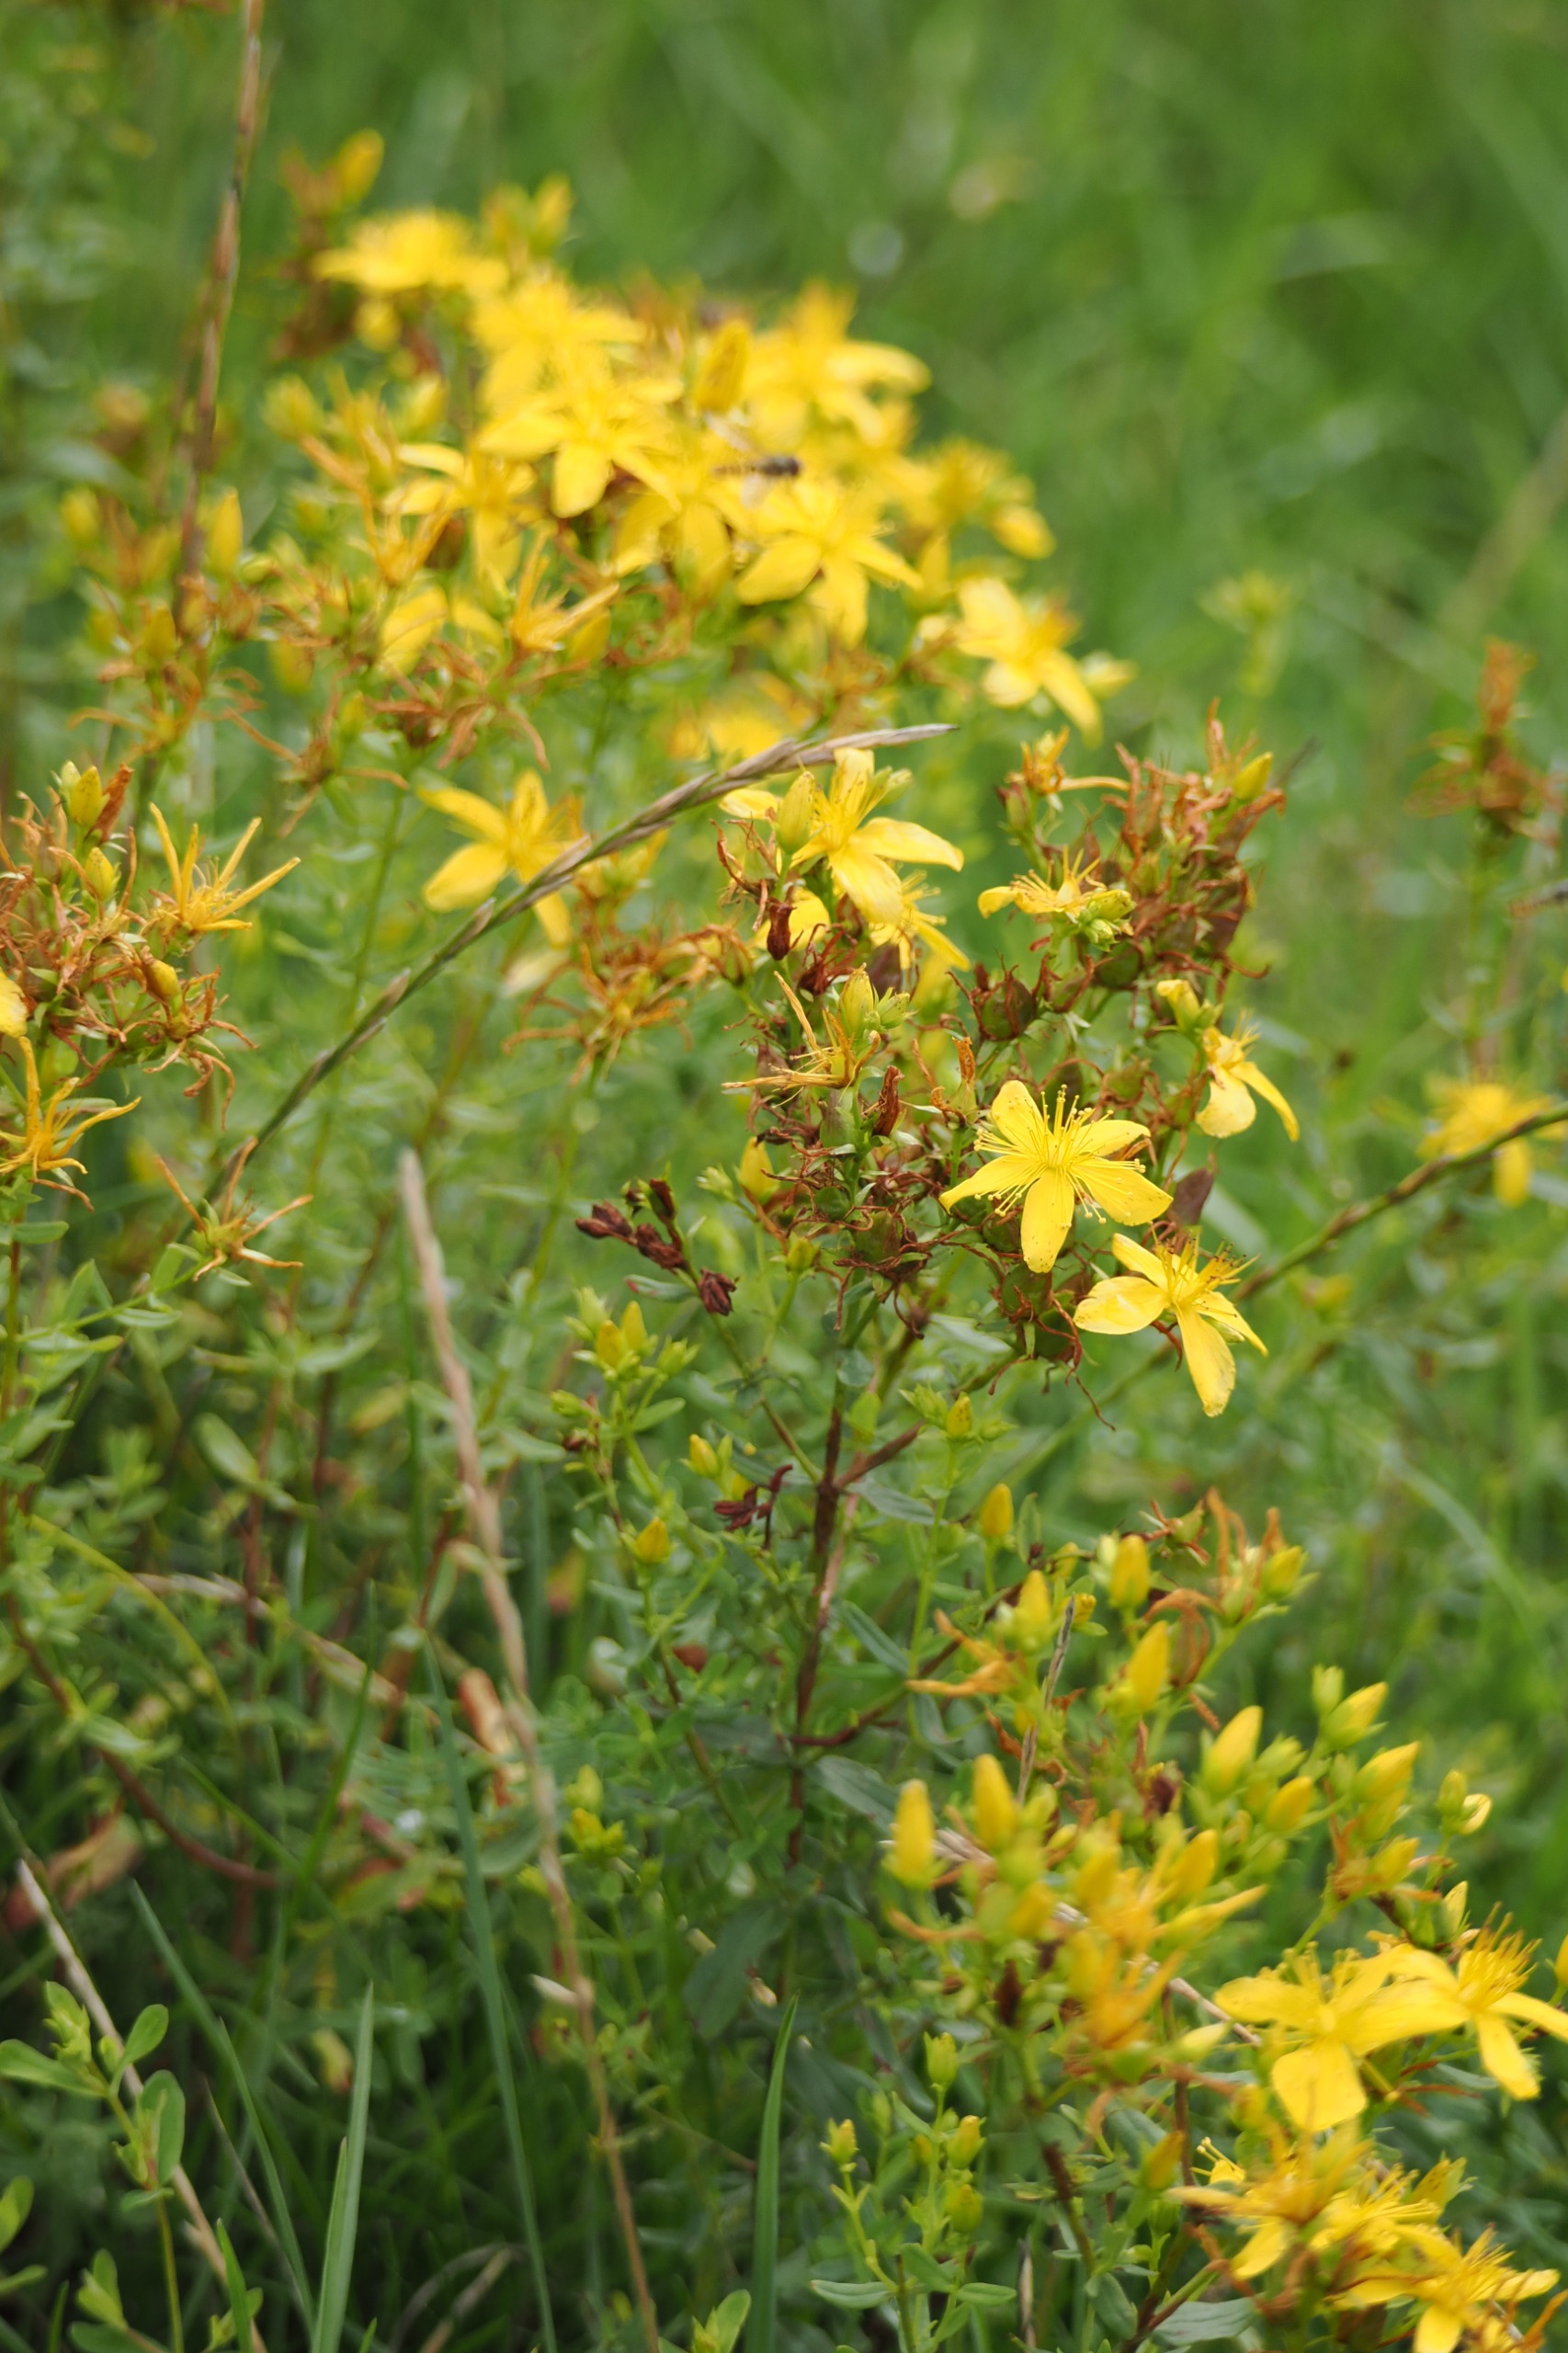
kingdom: Plantae
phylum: Tracheophyta
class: Magnoliopsida
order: Malpighiales
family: Hypericaceae
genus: Hypericum
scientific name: Hypericum perforatum
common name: Prikbladet perikon
